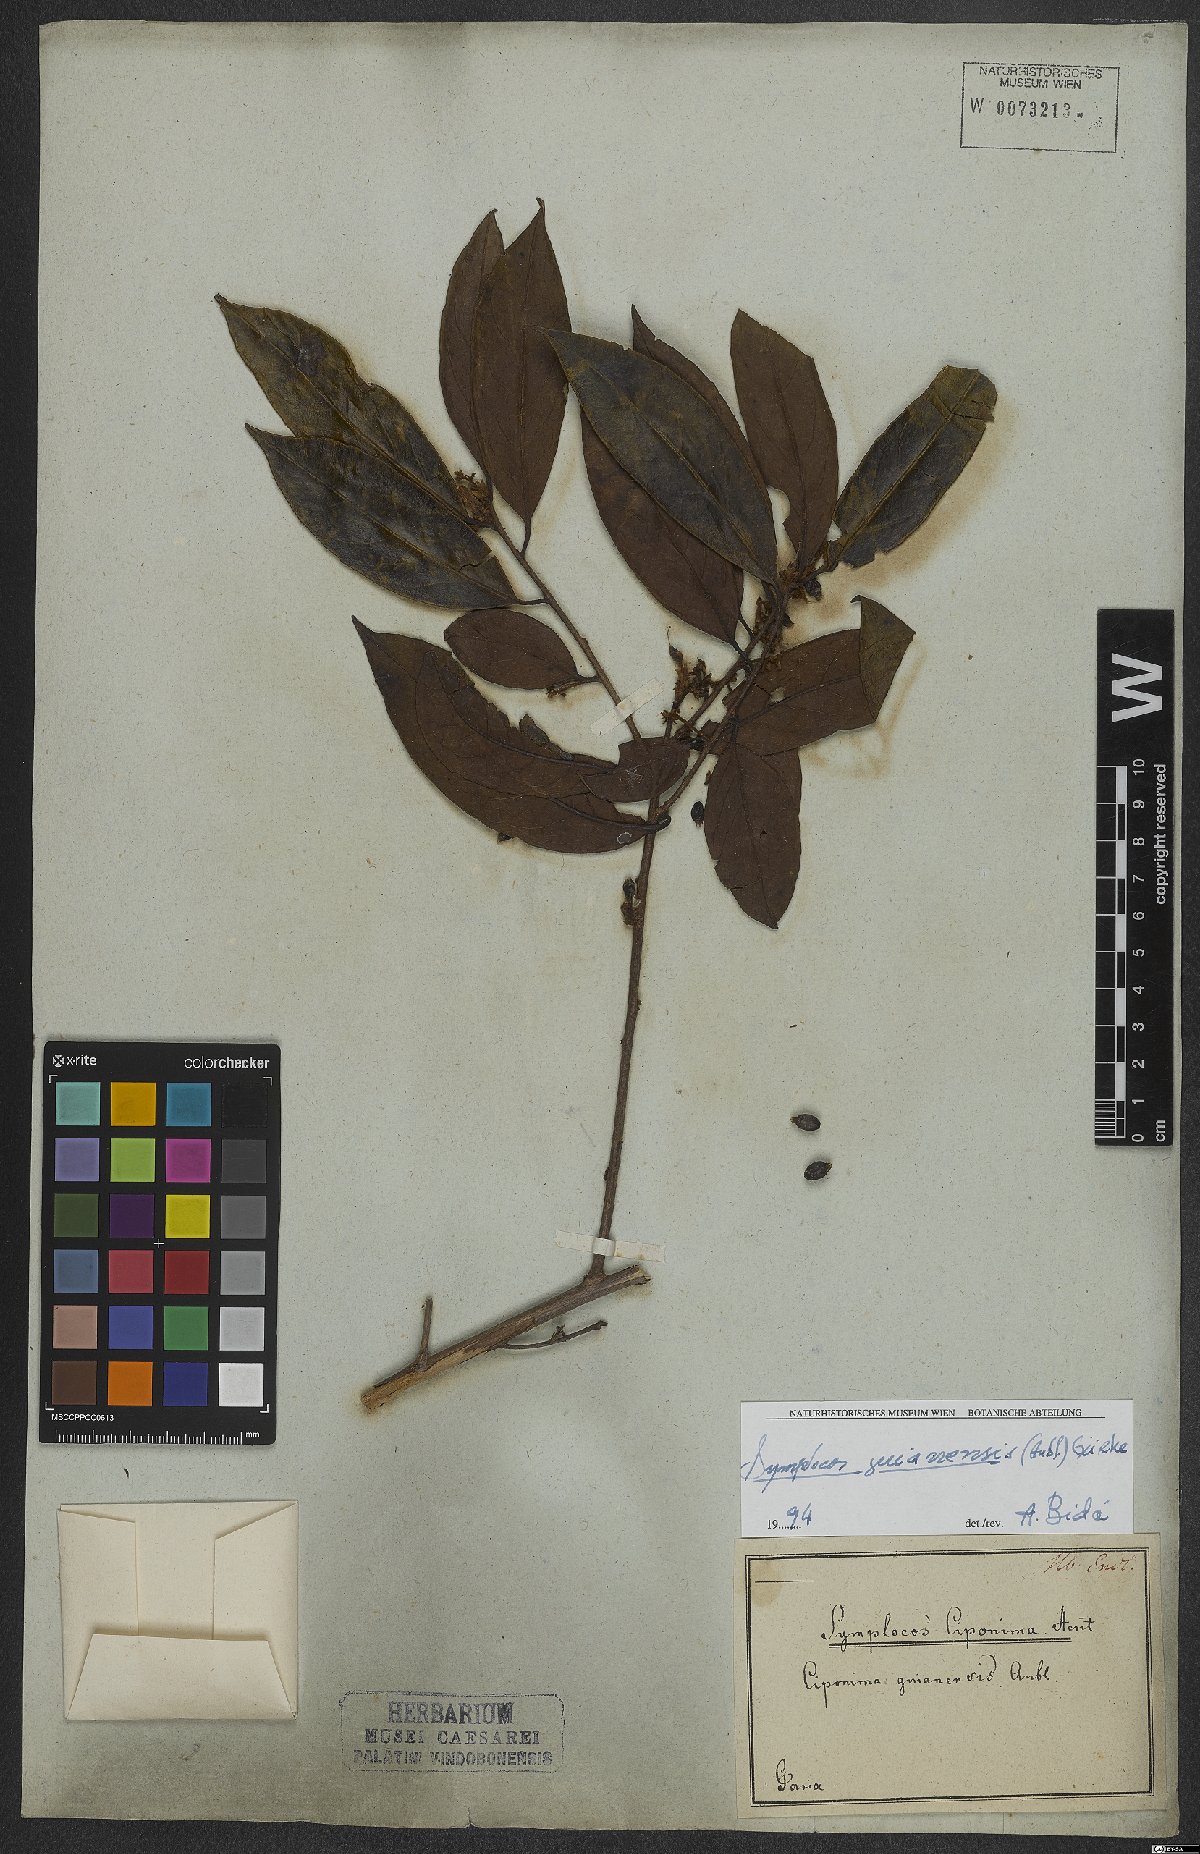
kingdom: Plantae
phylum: Tracheophyta
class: Magnoliopsida
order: Ericales
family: Symplocaceae
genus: Symplocos
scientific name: Symplocos guianensis
